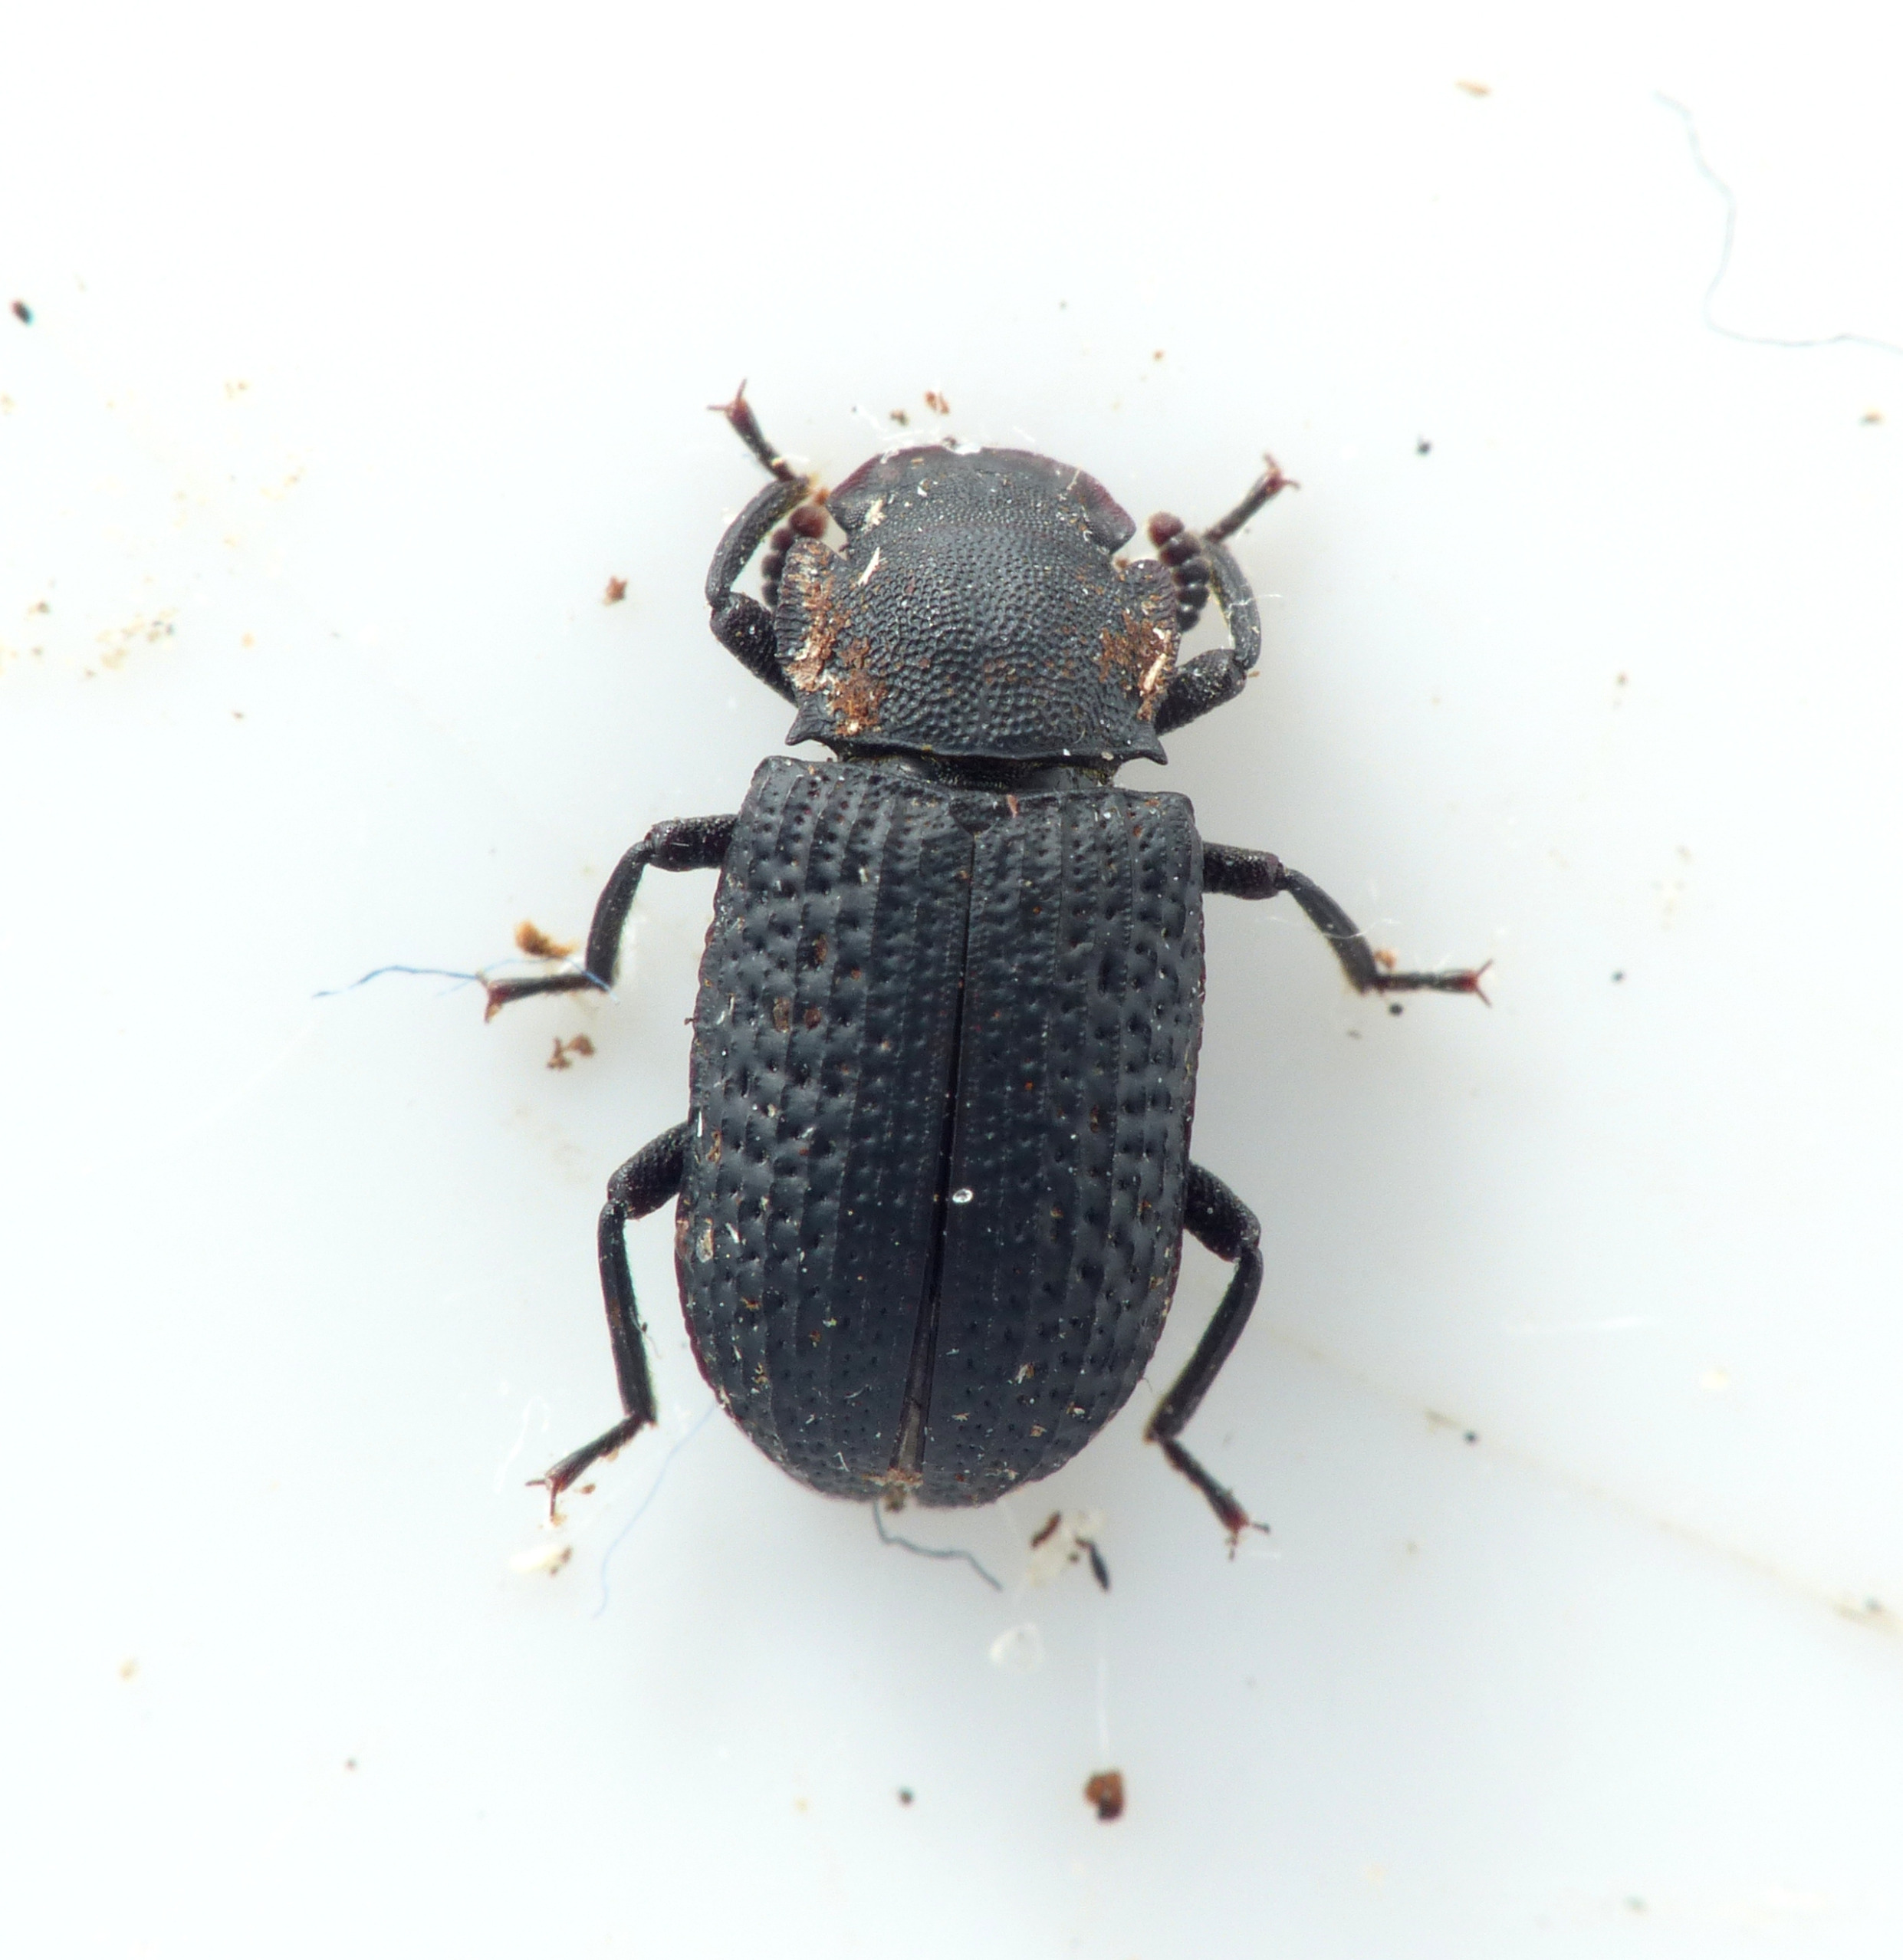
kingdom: Animalia
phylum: Arthropoda
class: Insecta
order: Coleoptera
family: Tenebrionidae
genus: Bolitophagus
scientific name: Bolitophagus reticulatus
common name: Netskyggebille
